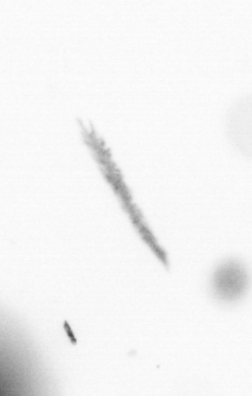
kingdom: Chromista
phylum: Ochrophyta
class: Bacillariophyceae
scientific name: Bacillariophyceae
